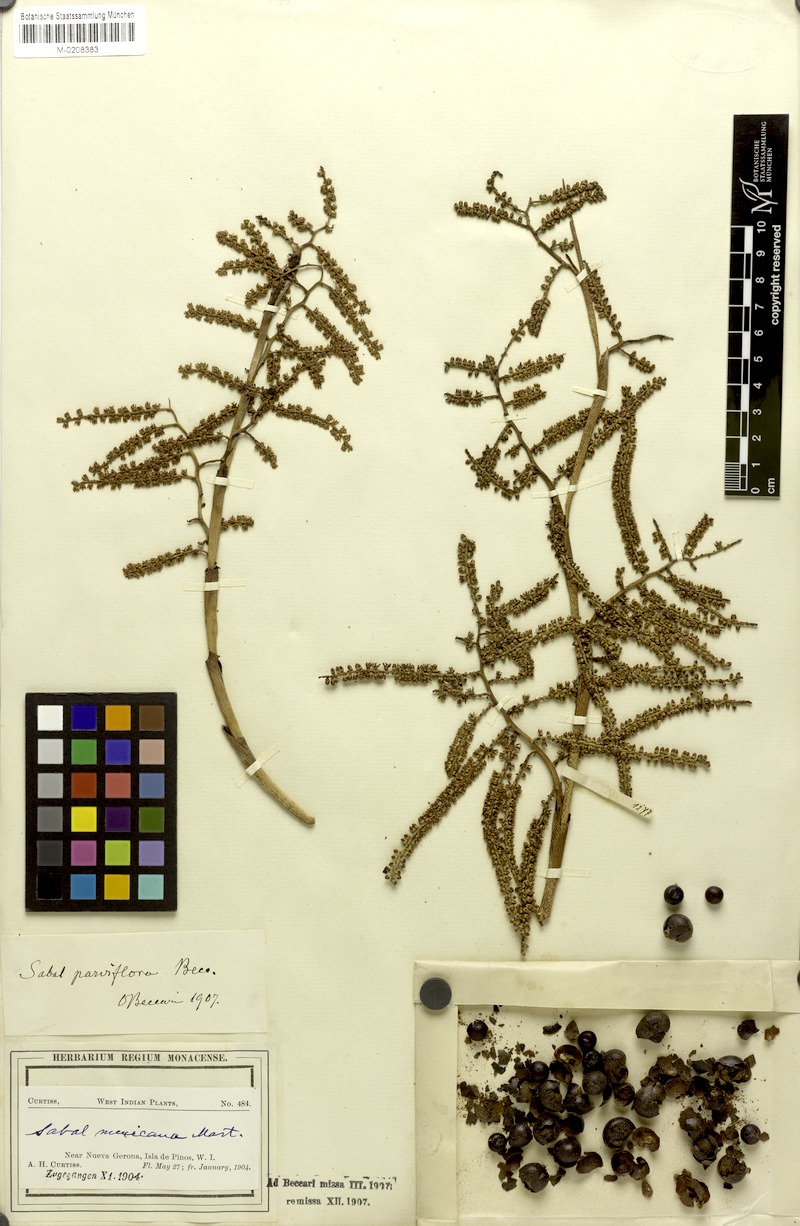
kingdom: Plantae
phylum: Tracheophyta
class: Liliopsida
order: Arecales
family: Arecaceae
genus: Sabal
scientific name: Sabal mexicana
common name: Texas palmetto
